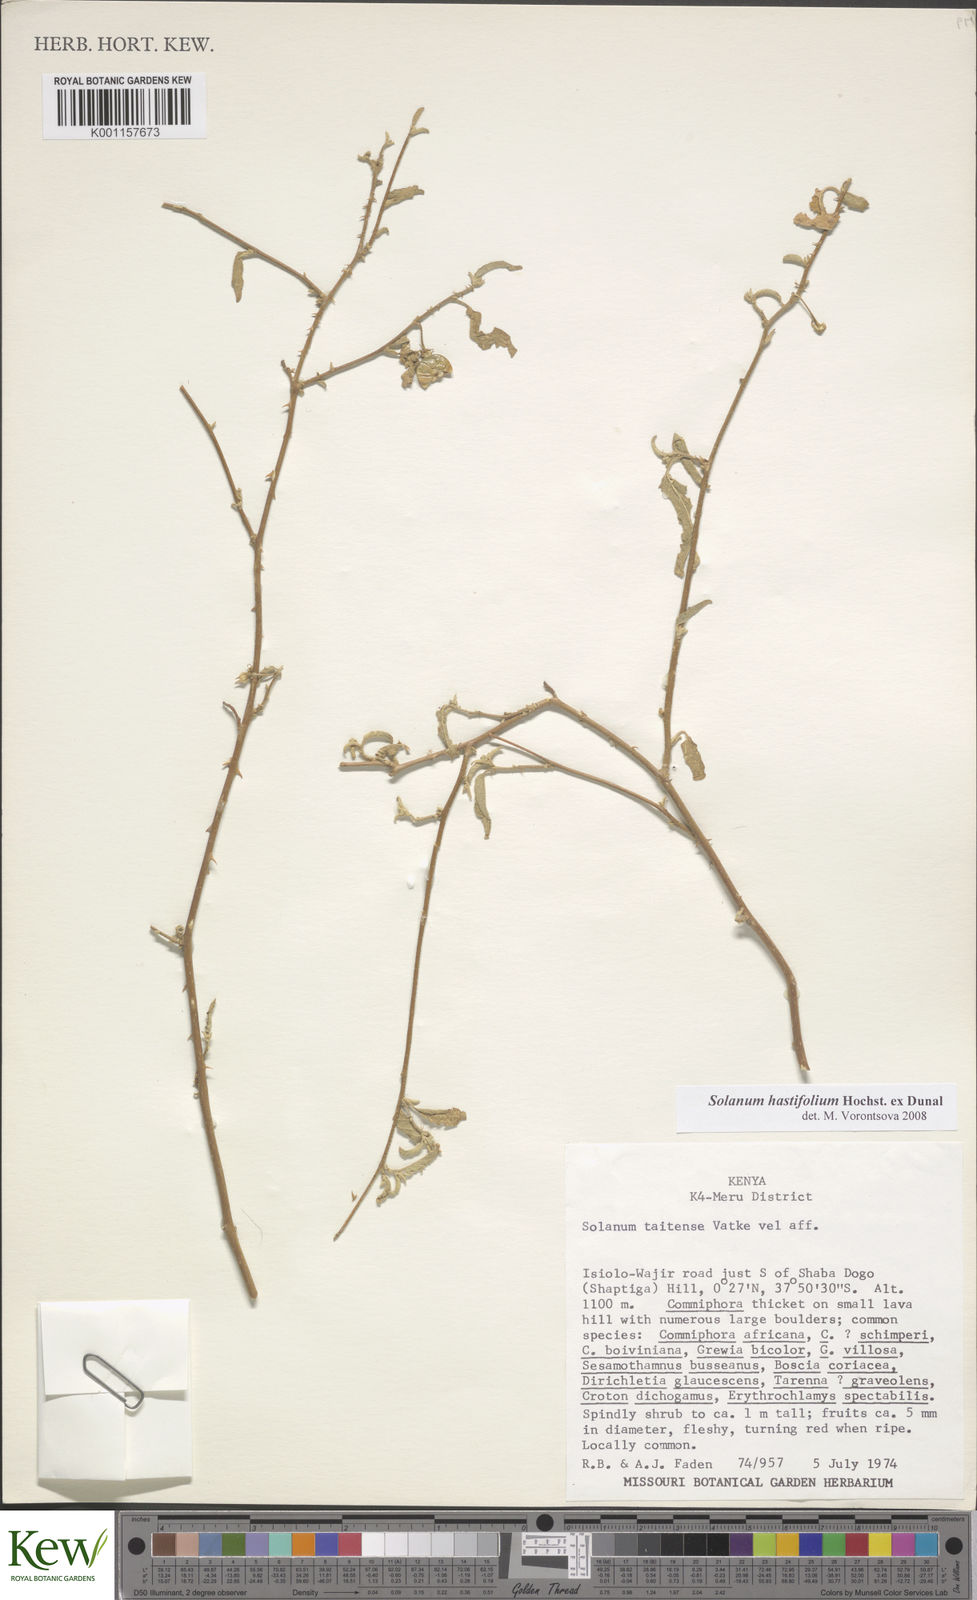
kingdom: Plantae
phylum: Tracheophyta
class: Magnoliopsida
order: Solanales
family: Solanaceae
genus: Solanum
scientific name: Solanum hastifolium
